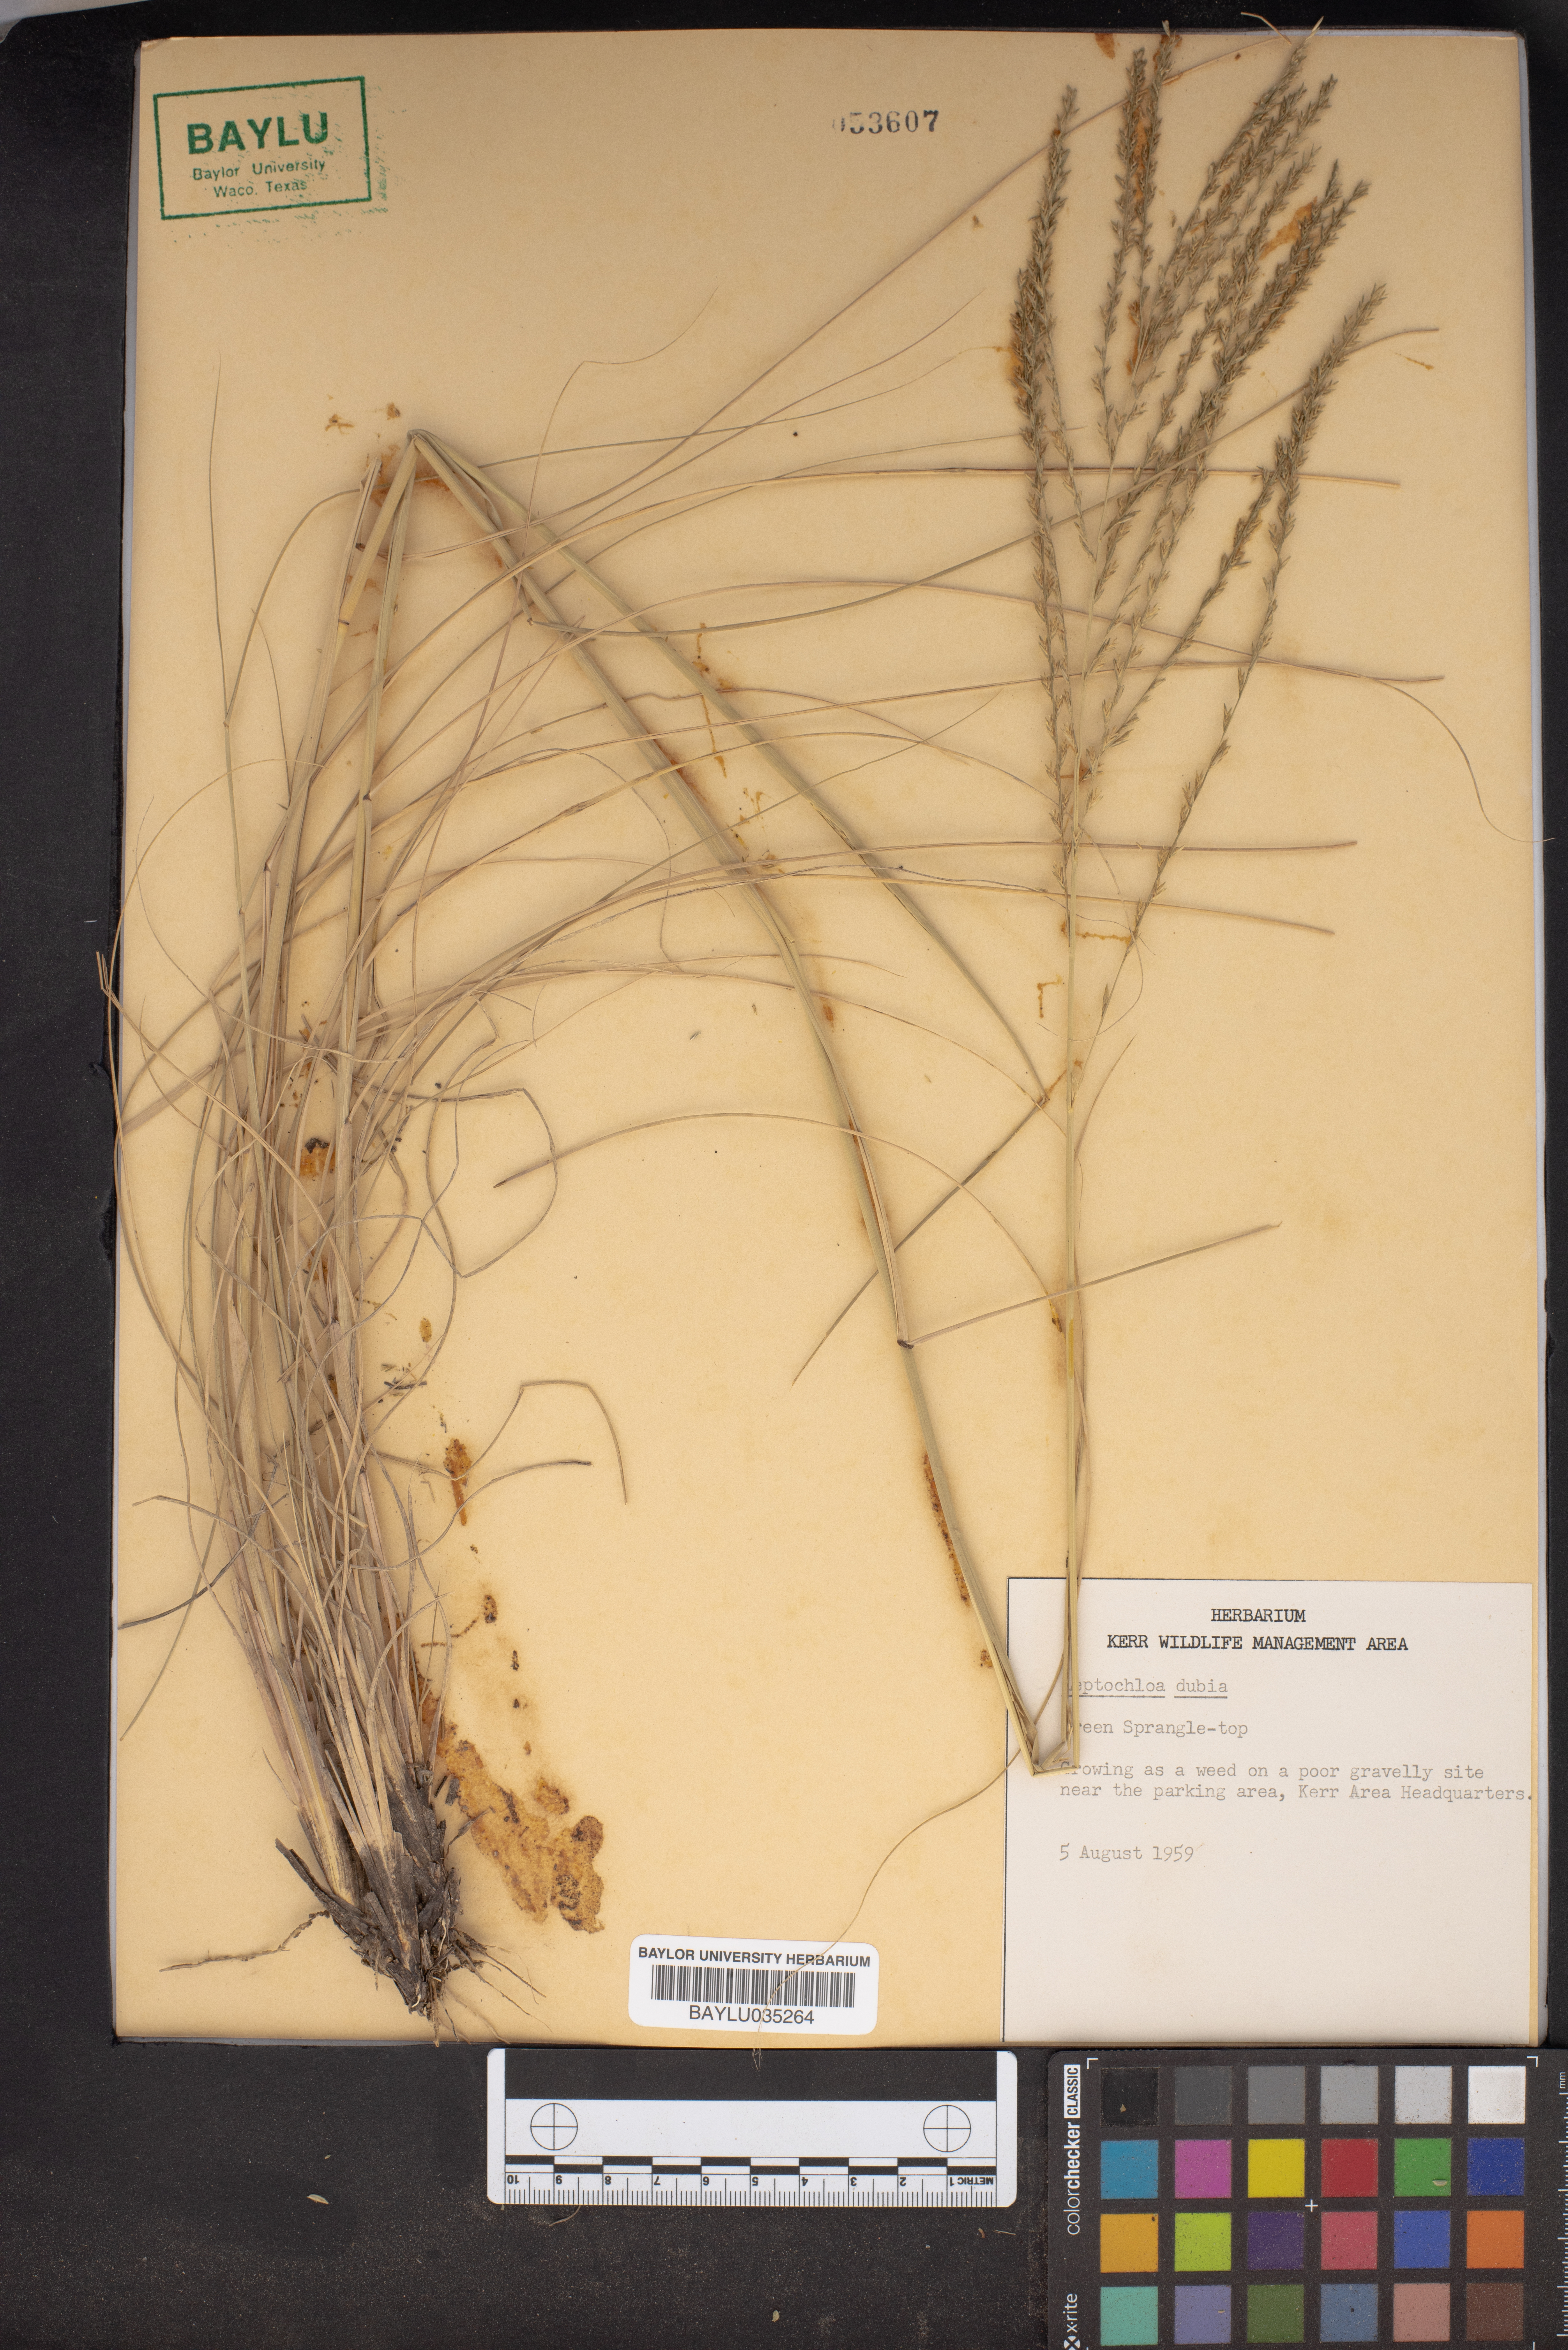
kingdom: Plantae
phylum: Tracheophyta
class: Liliopsida
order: Poales
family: Poaceae
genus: Disakisperma
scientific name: Disakisperma dubium
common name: Green sprangletop
